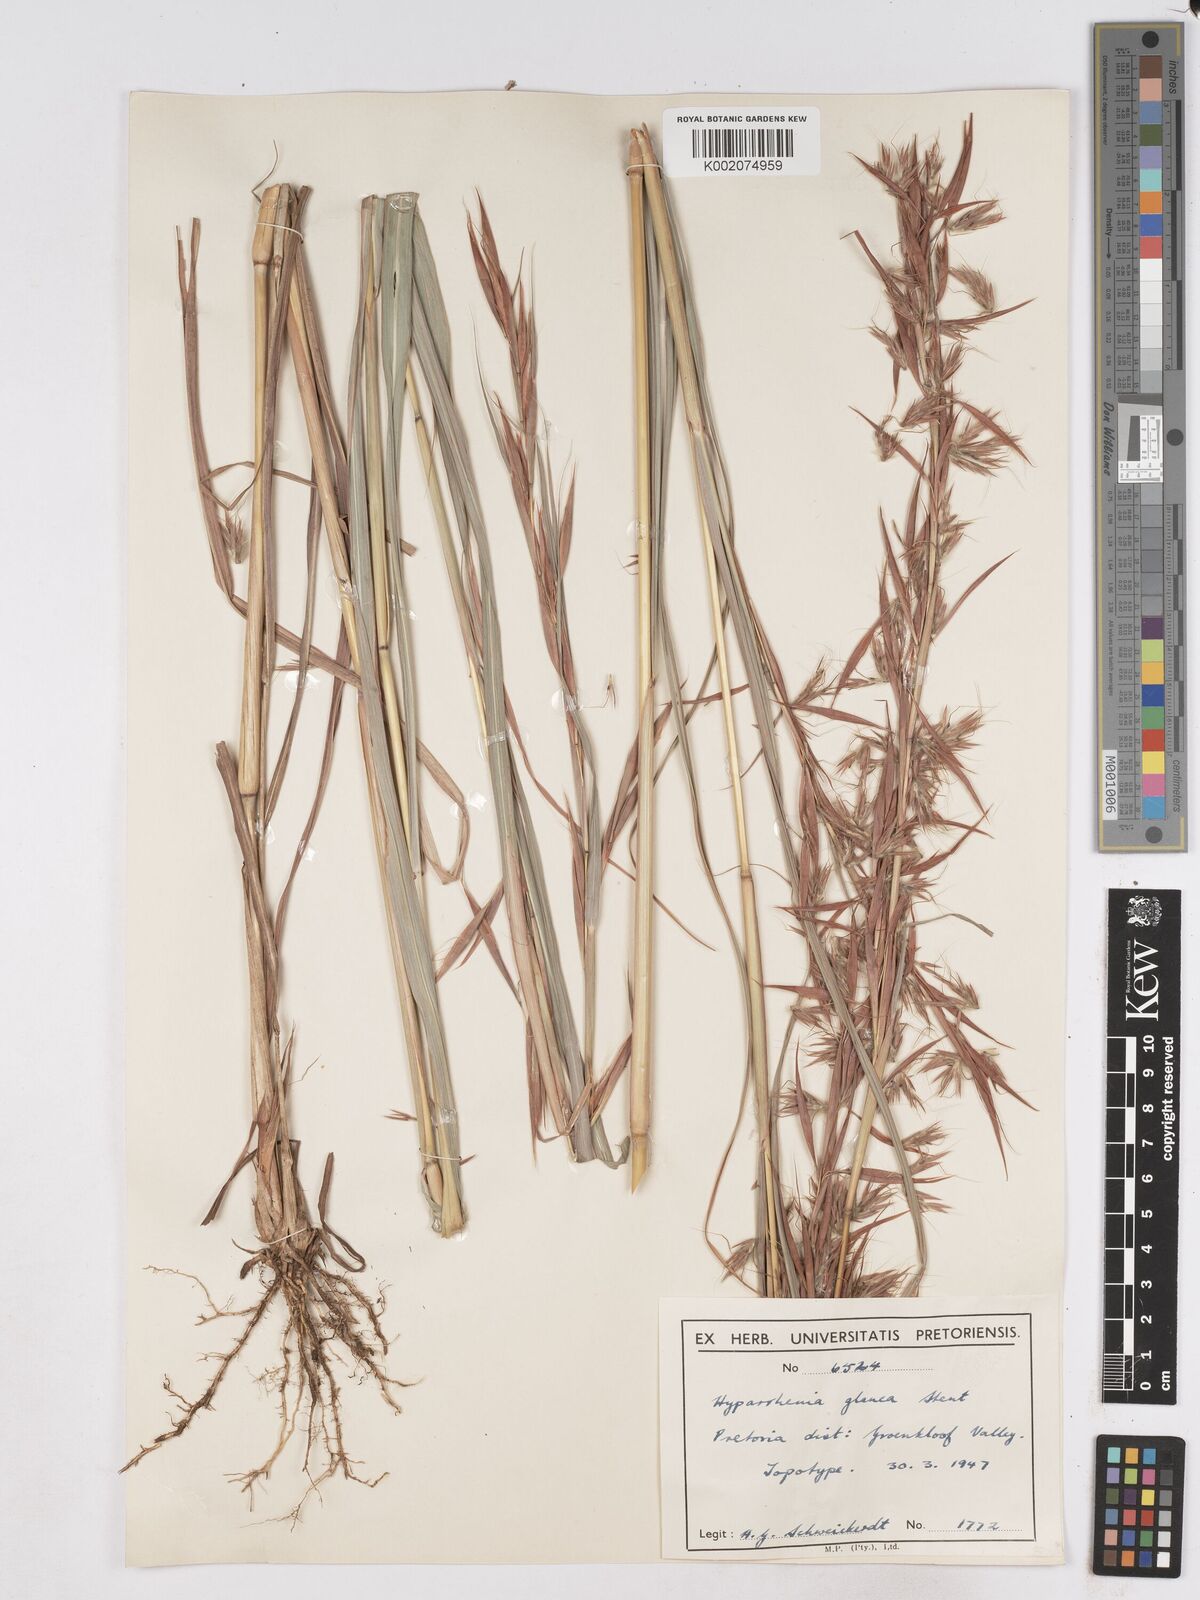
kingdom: Plantae
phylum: Tracheophyta
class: Liliopsida
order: Poales
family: Poaceae
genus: Hyparrhenia
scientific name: Hyparrhenia tamba
